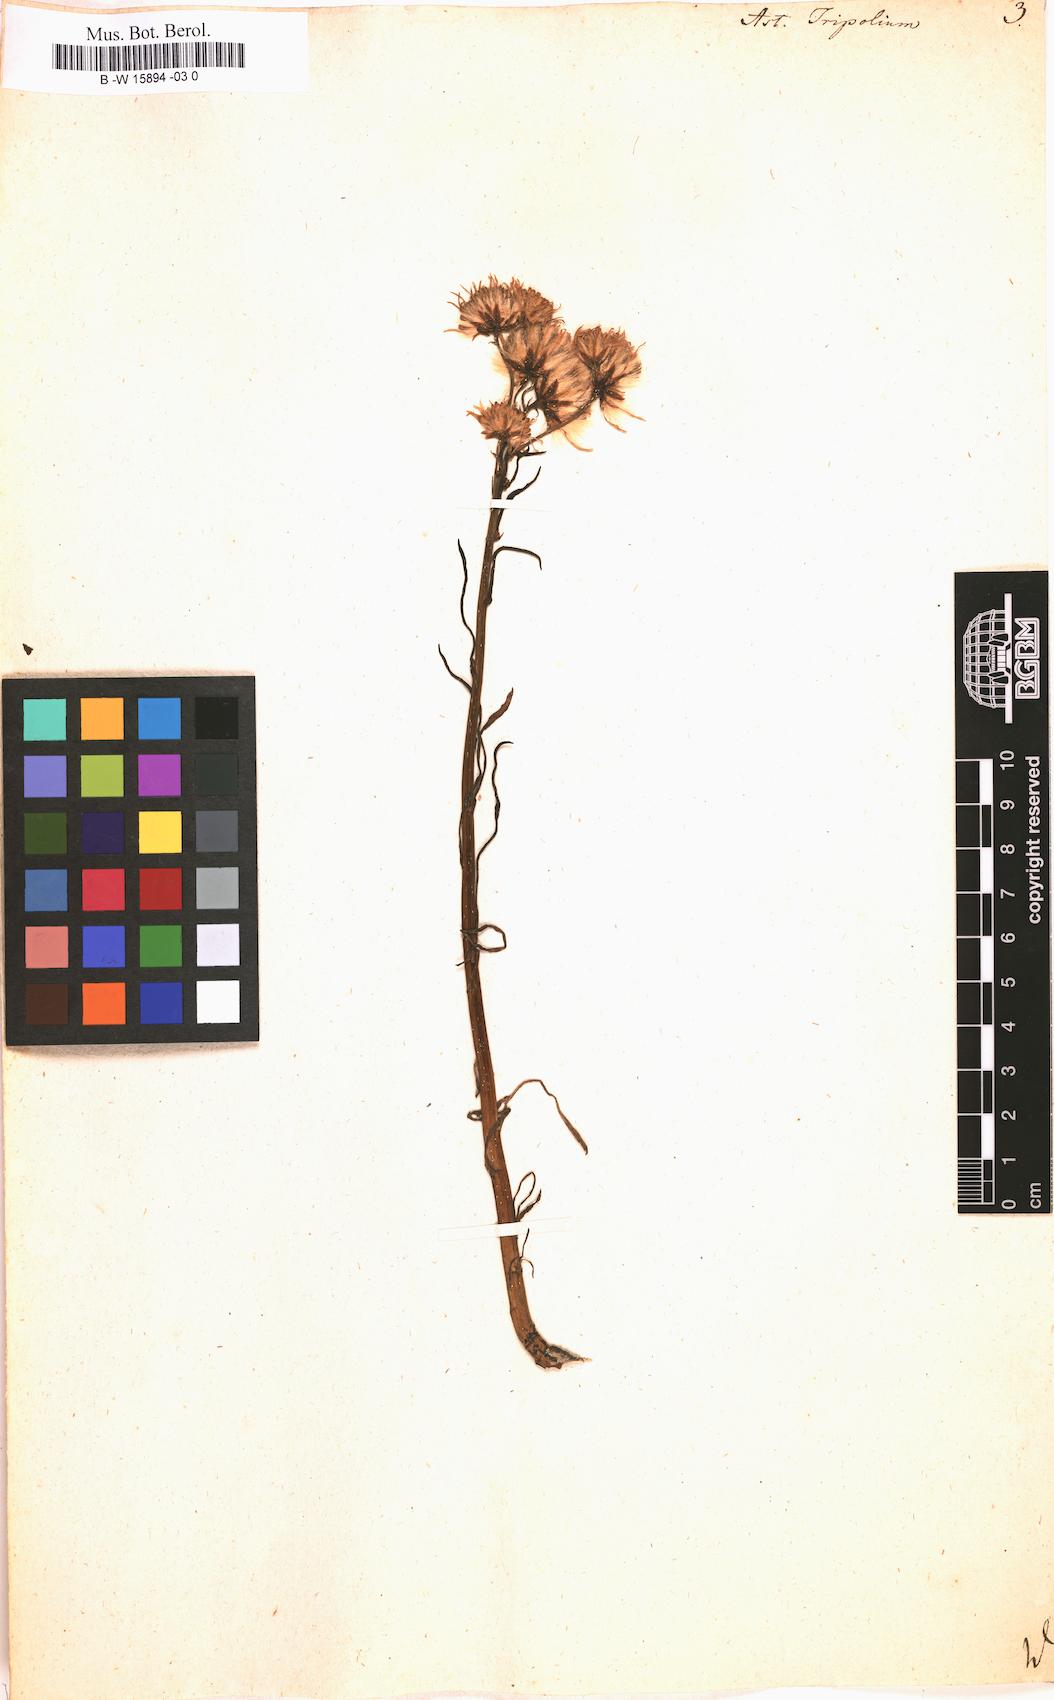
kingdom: Plantae
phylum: Tracheophyta
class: Magnoliopsida
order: Asterales
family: Asteraceae
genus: Tripolium
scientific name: Tripolium pannonicum
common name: Sea aster
